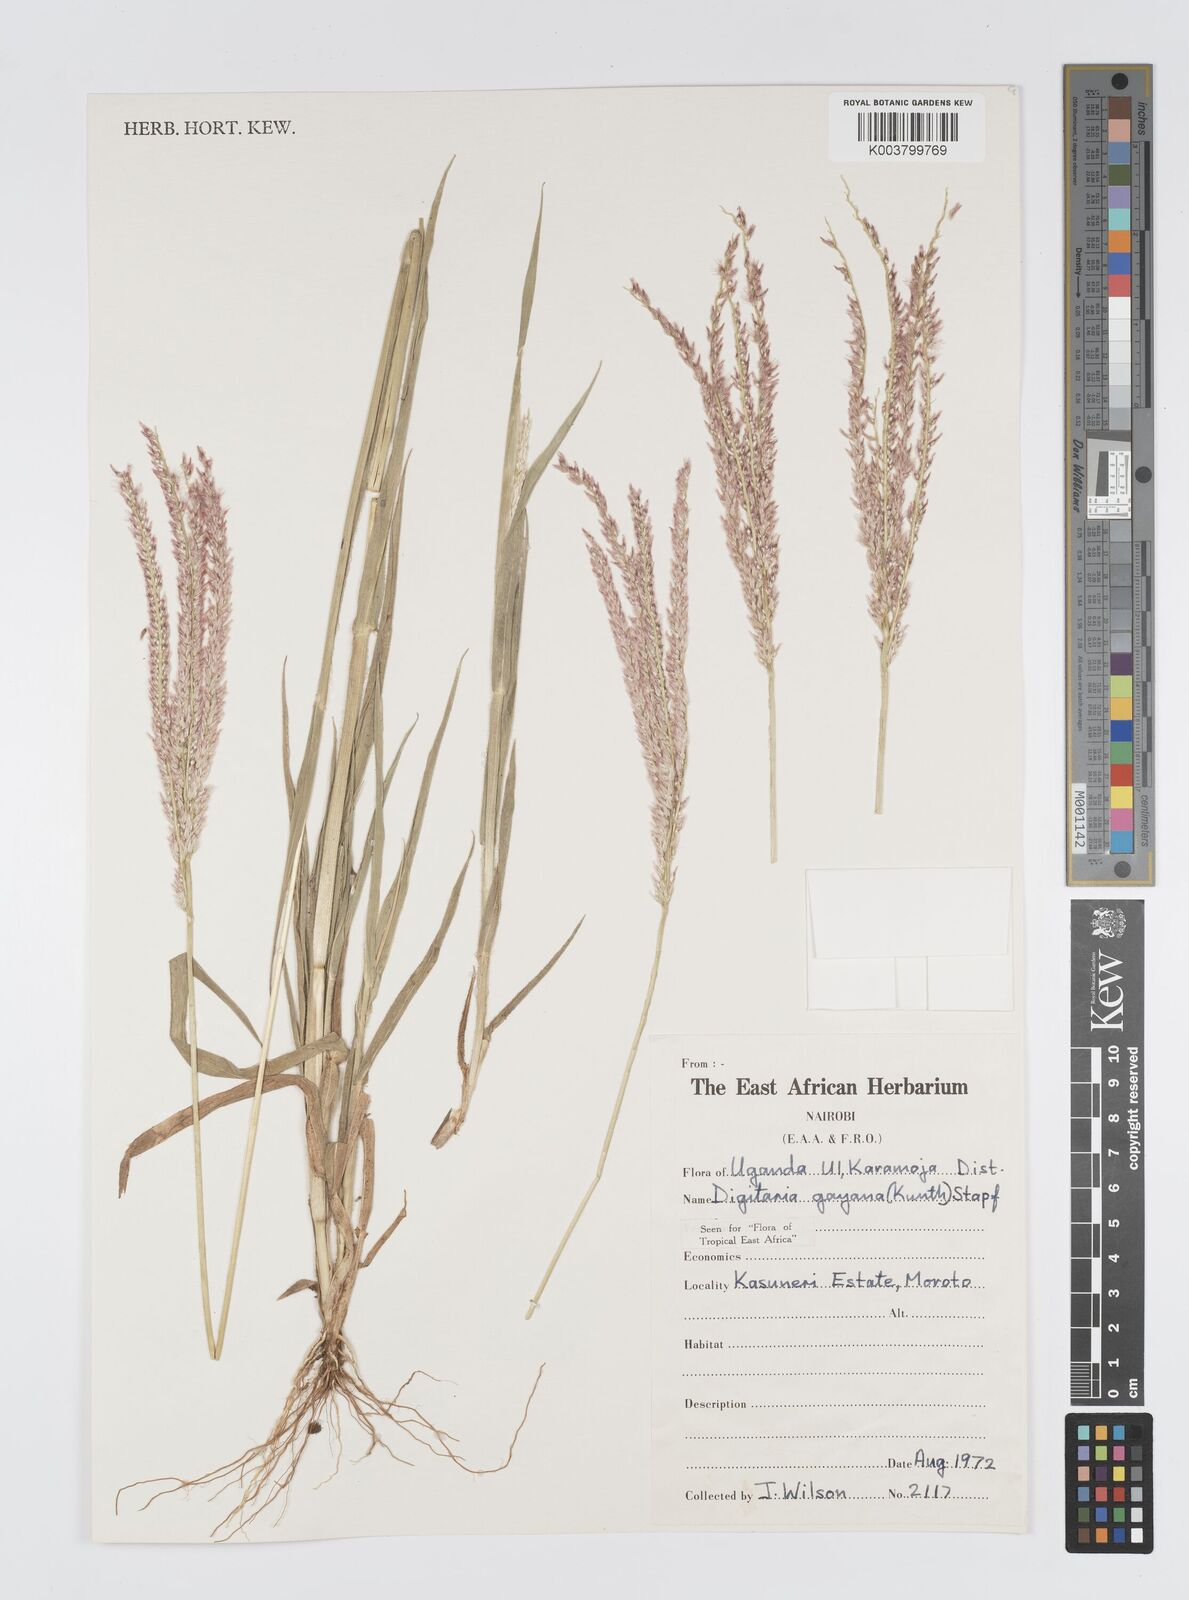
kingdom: Plantae
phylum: Tracheophyta
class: Liliopsida
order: Poales
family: Poaceae
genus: Digitaria
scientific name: Digitaria gayana
